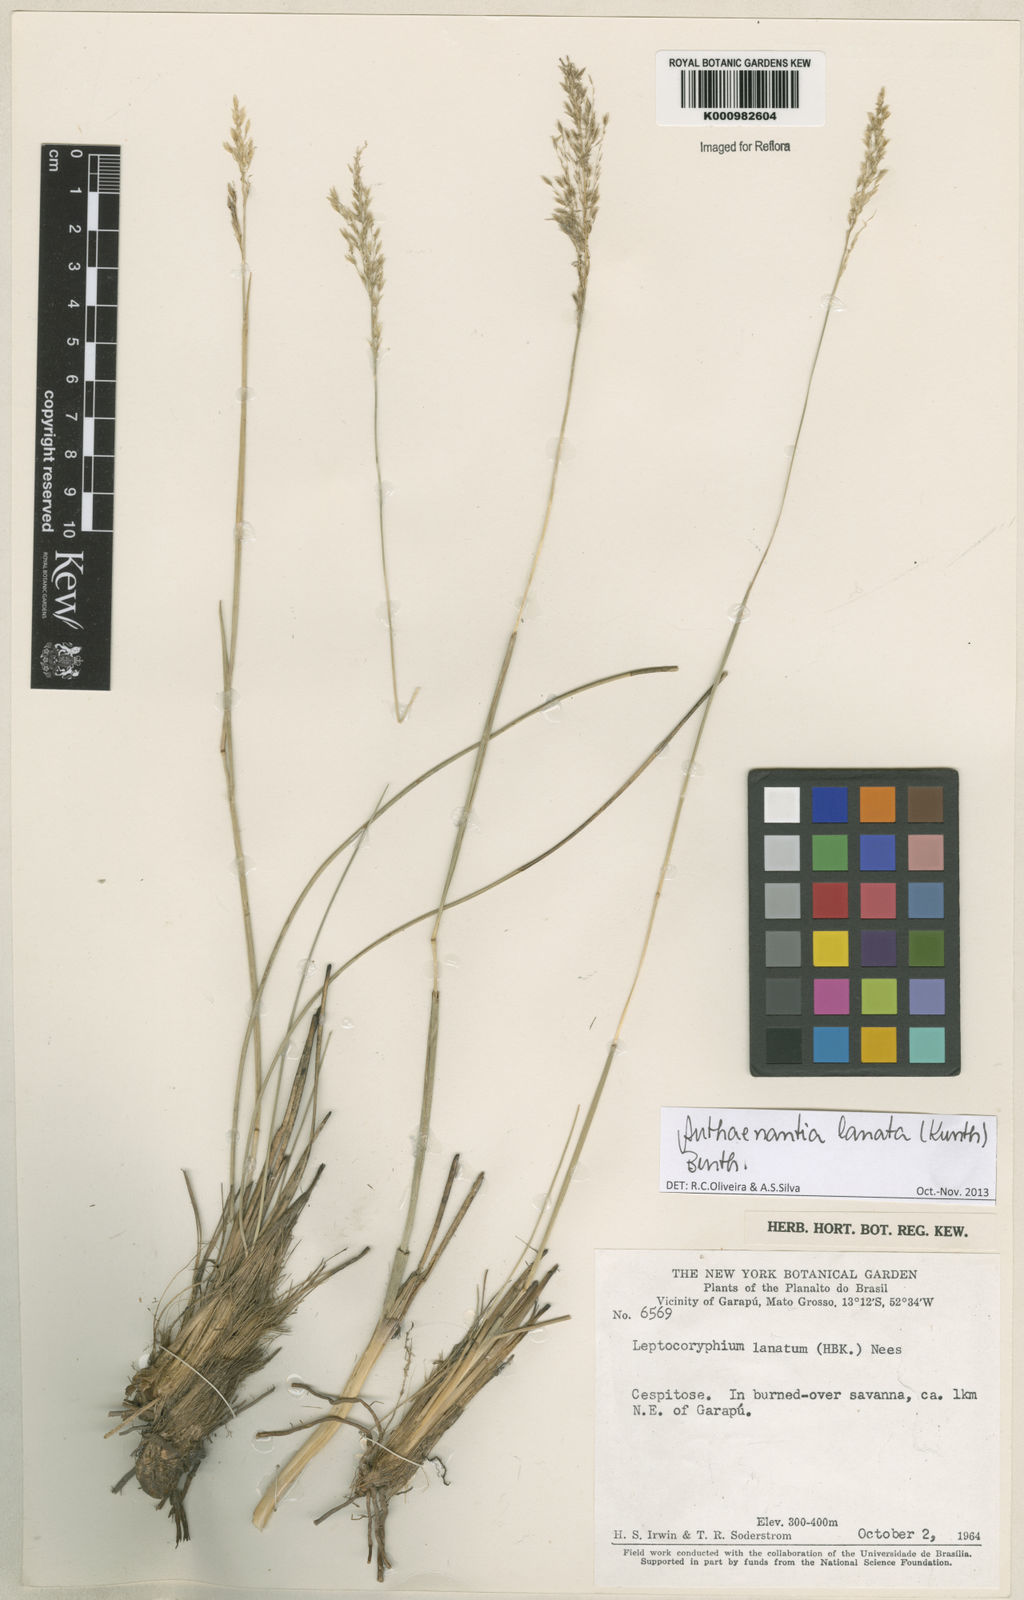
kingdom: Plantae
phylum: Tracheophyta
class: Liliopsida
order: Poales
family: Poaceae
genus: Anthenantia
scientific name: Anthenantia lanata
